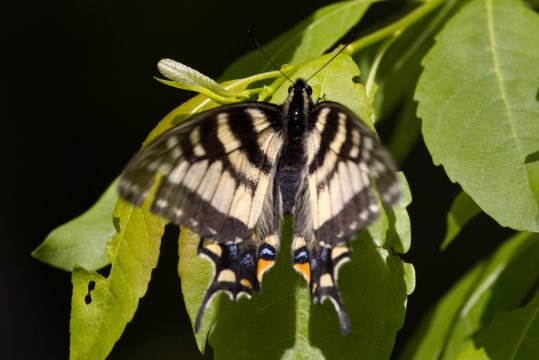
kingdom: Animalia
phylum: Arthropoda
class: Insecta
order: Lepidoptera
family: Papilionidae
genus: Pterourus
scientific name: Pterourus canadensis
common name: Canadian Tiger Swallowtail
